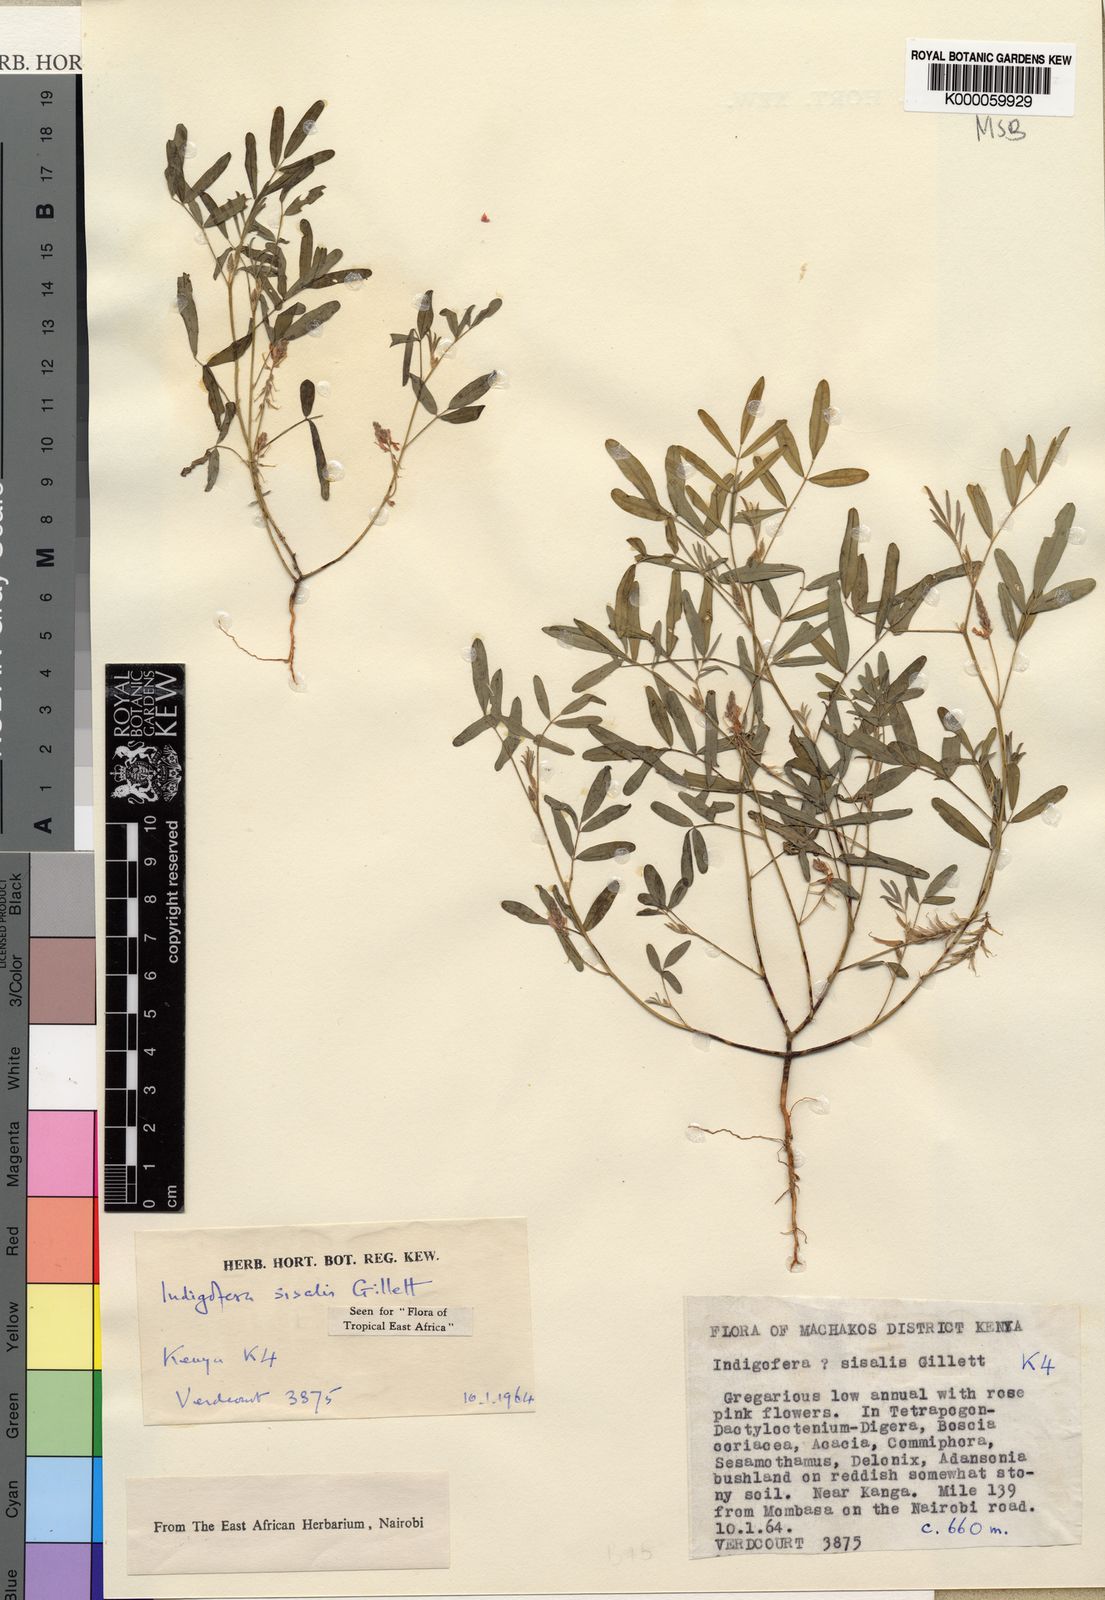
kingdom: Plantae
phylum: Tracheophyta
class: Magnoliopsida
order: Fabales
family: Fabaceae
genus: Indigofera
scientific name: Indigofera sisalis
